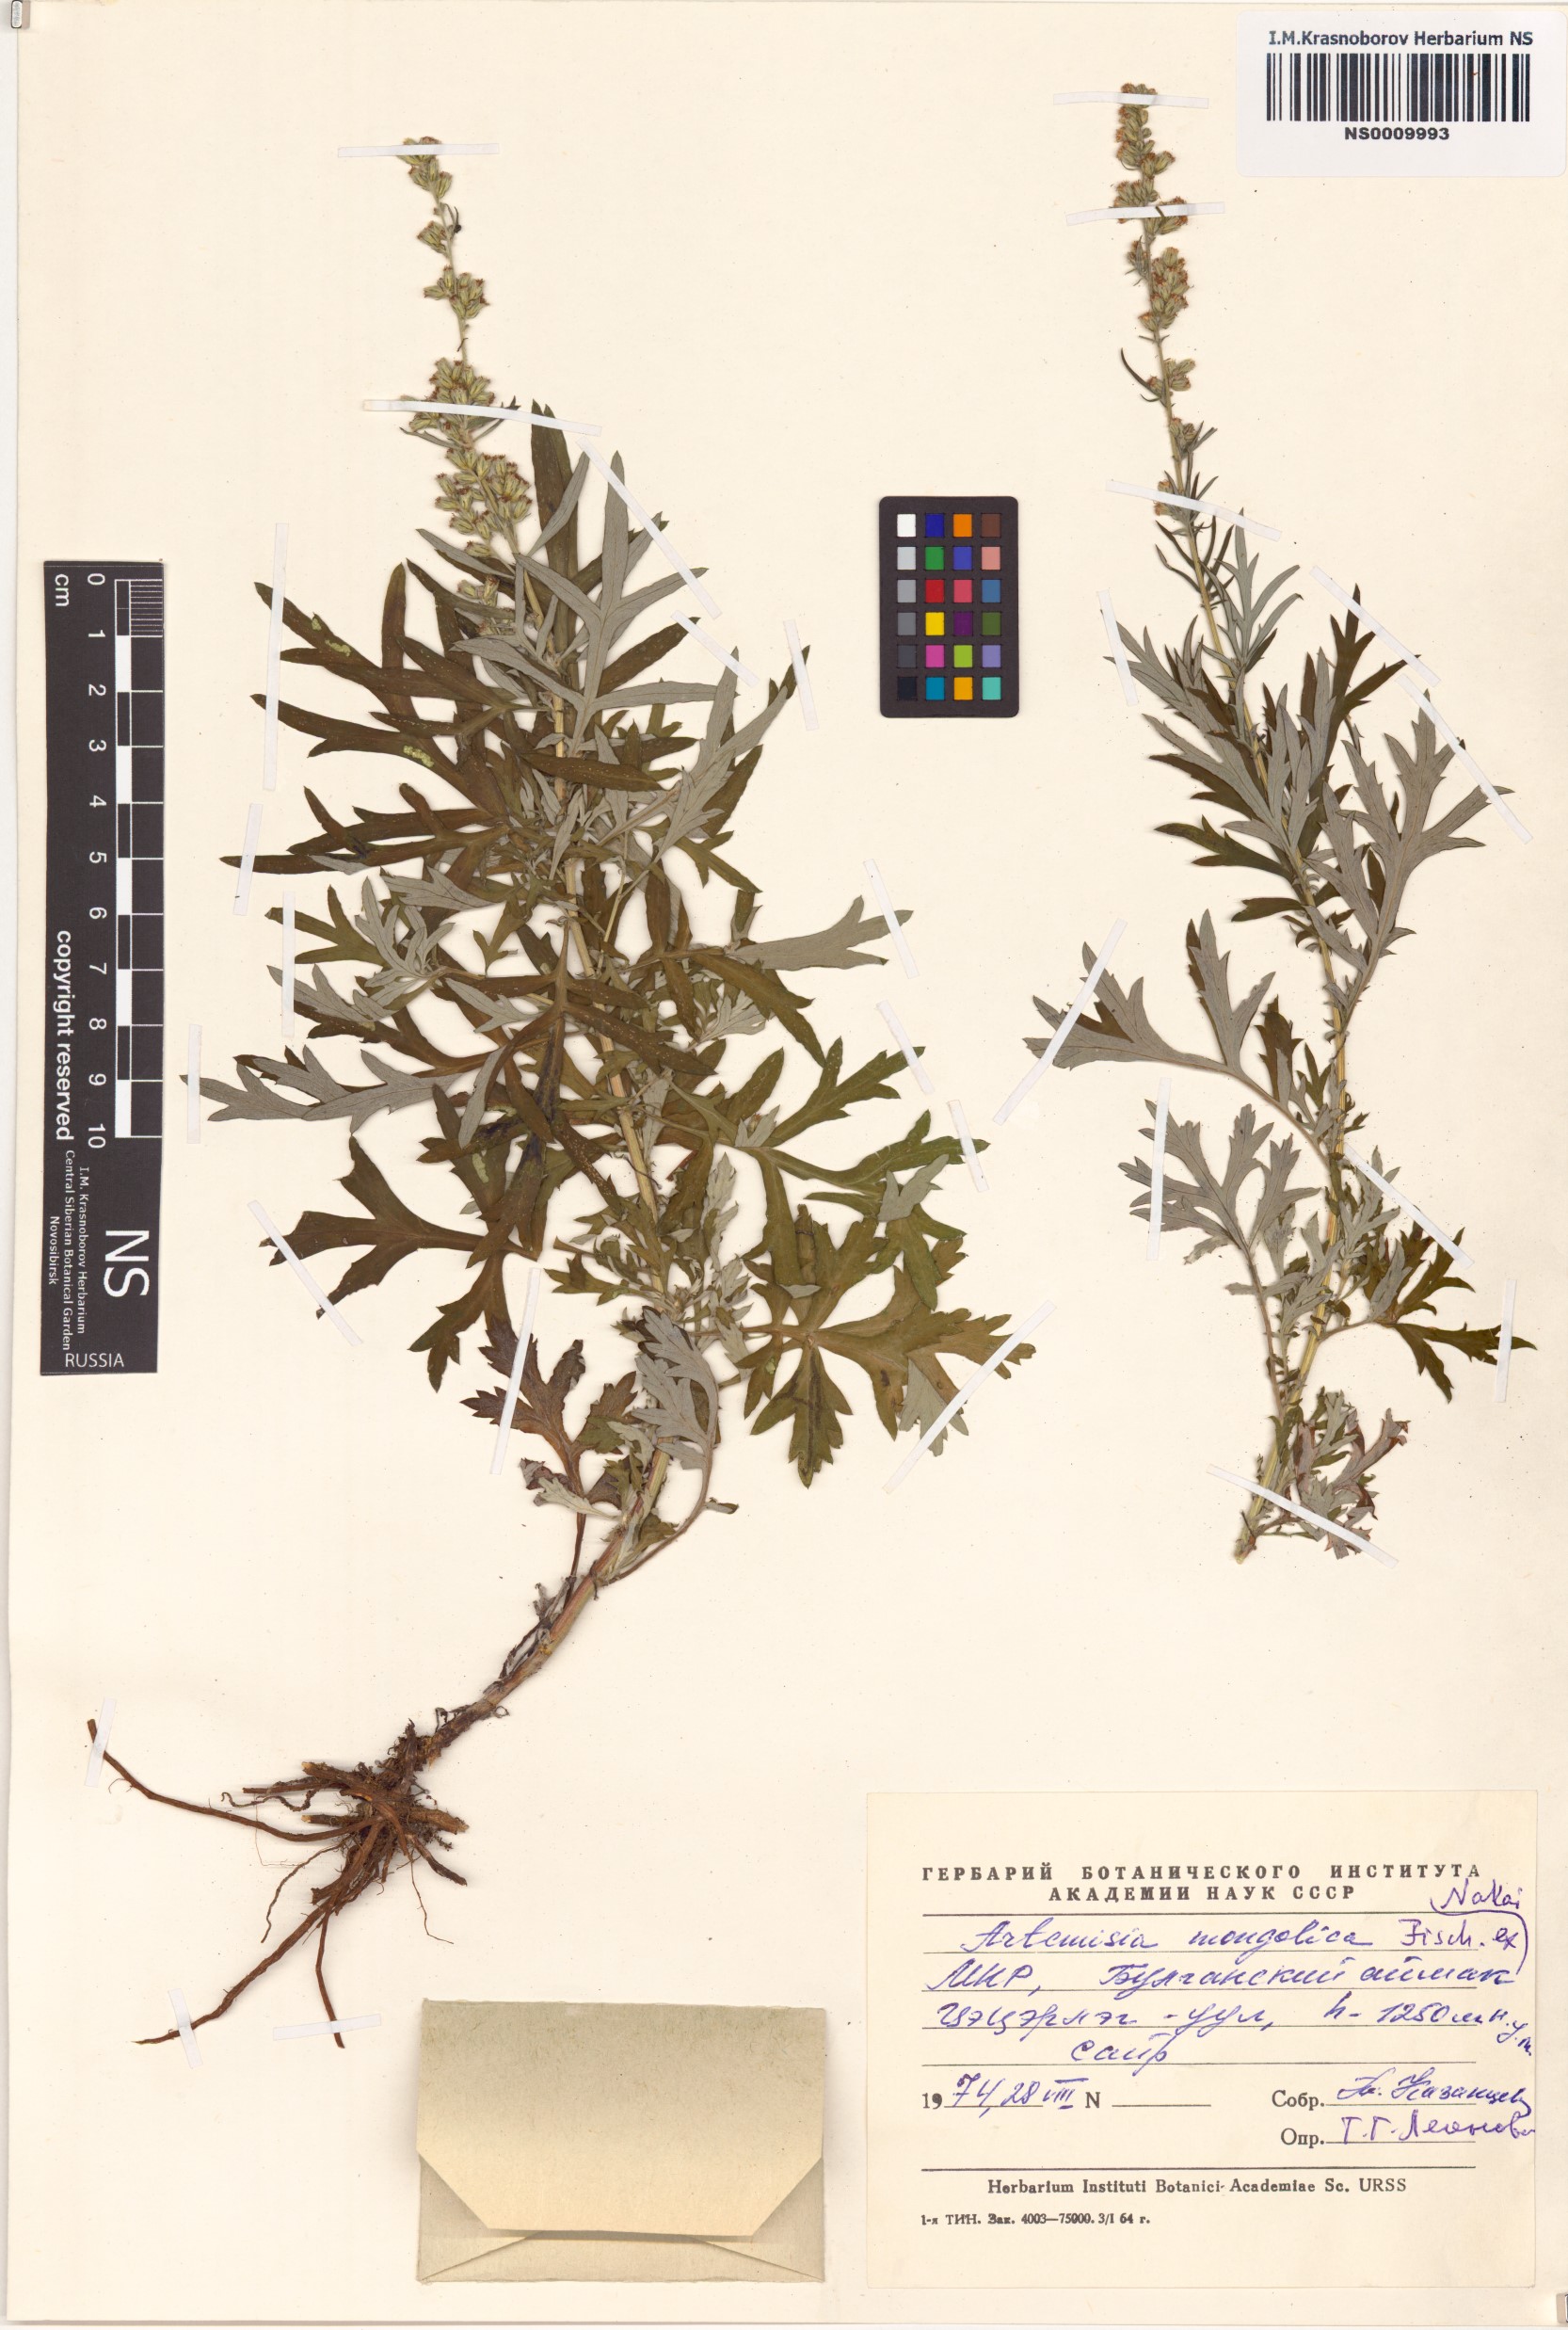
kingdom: Plantae
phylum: Tracheophyta
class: Magnoliopsida
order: Asterales
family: Asteraceae
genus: Artemisia
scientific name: Artemisia mongolica
